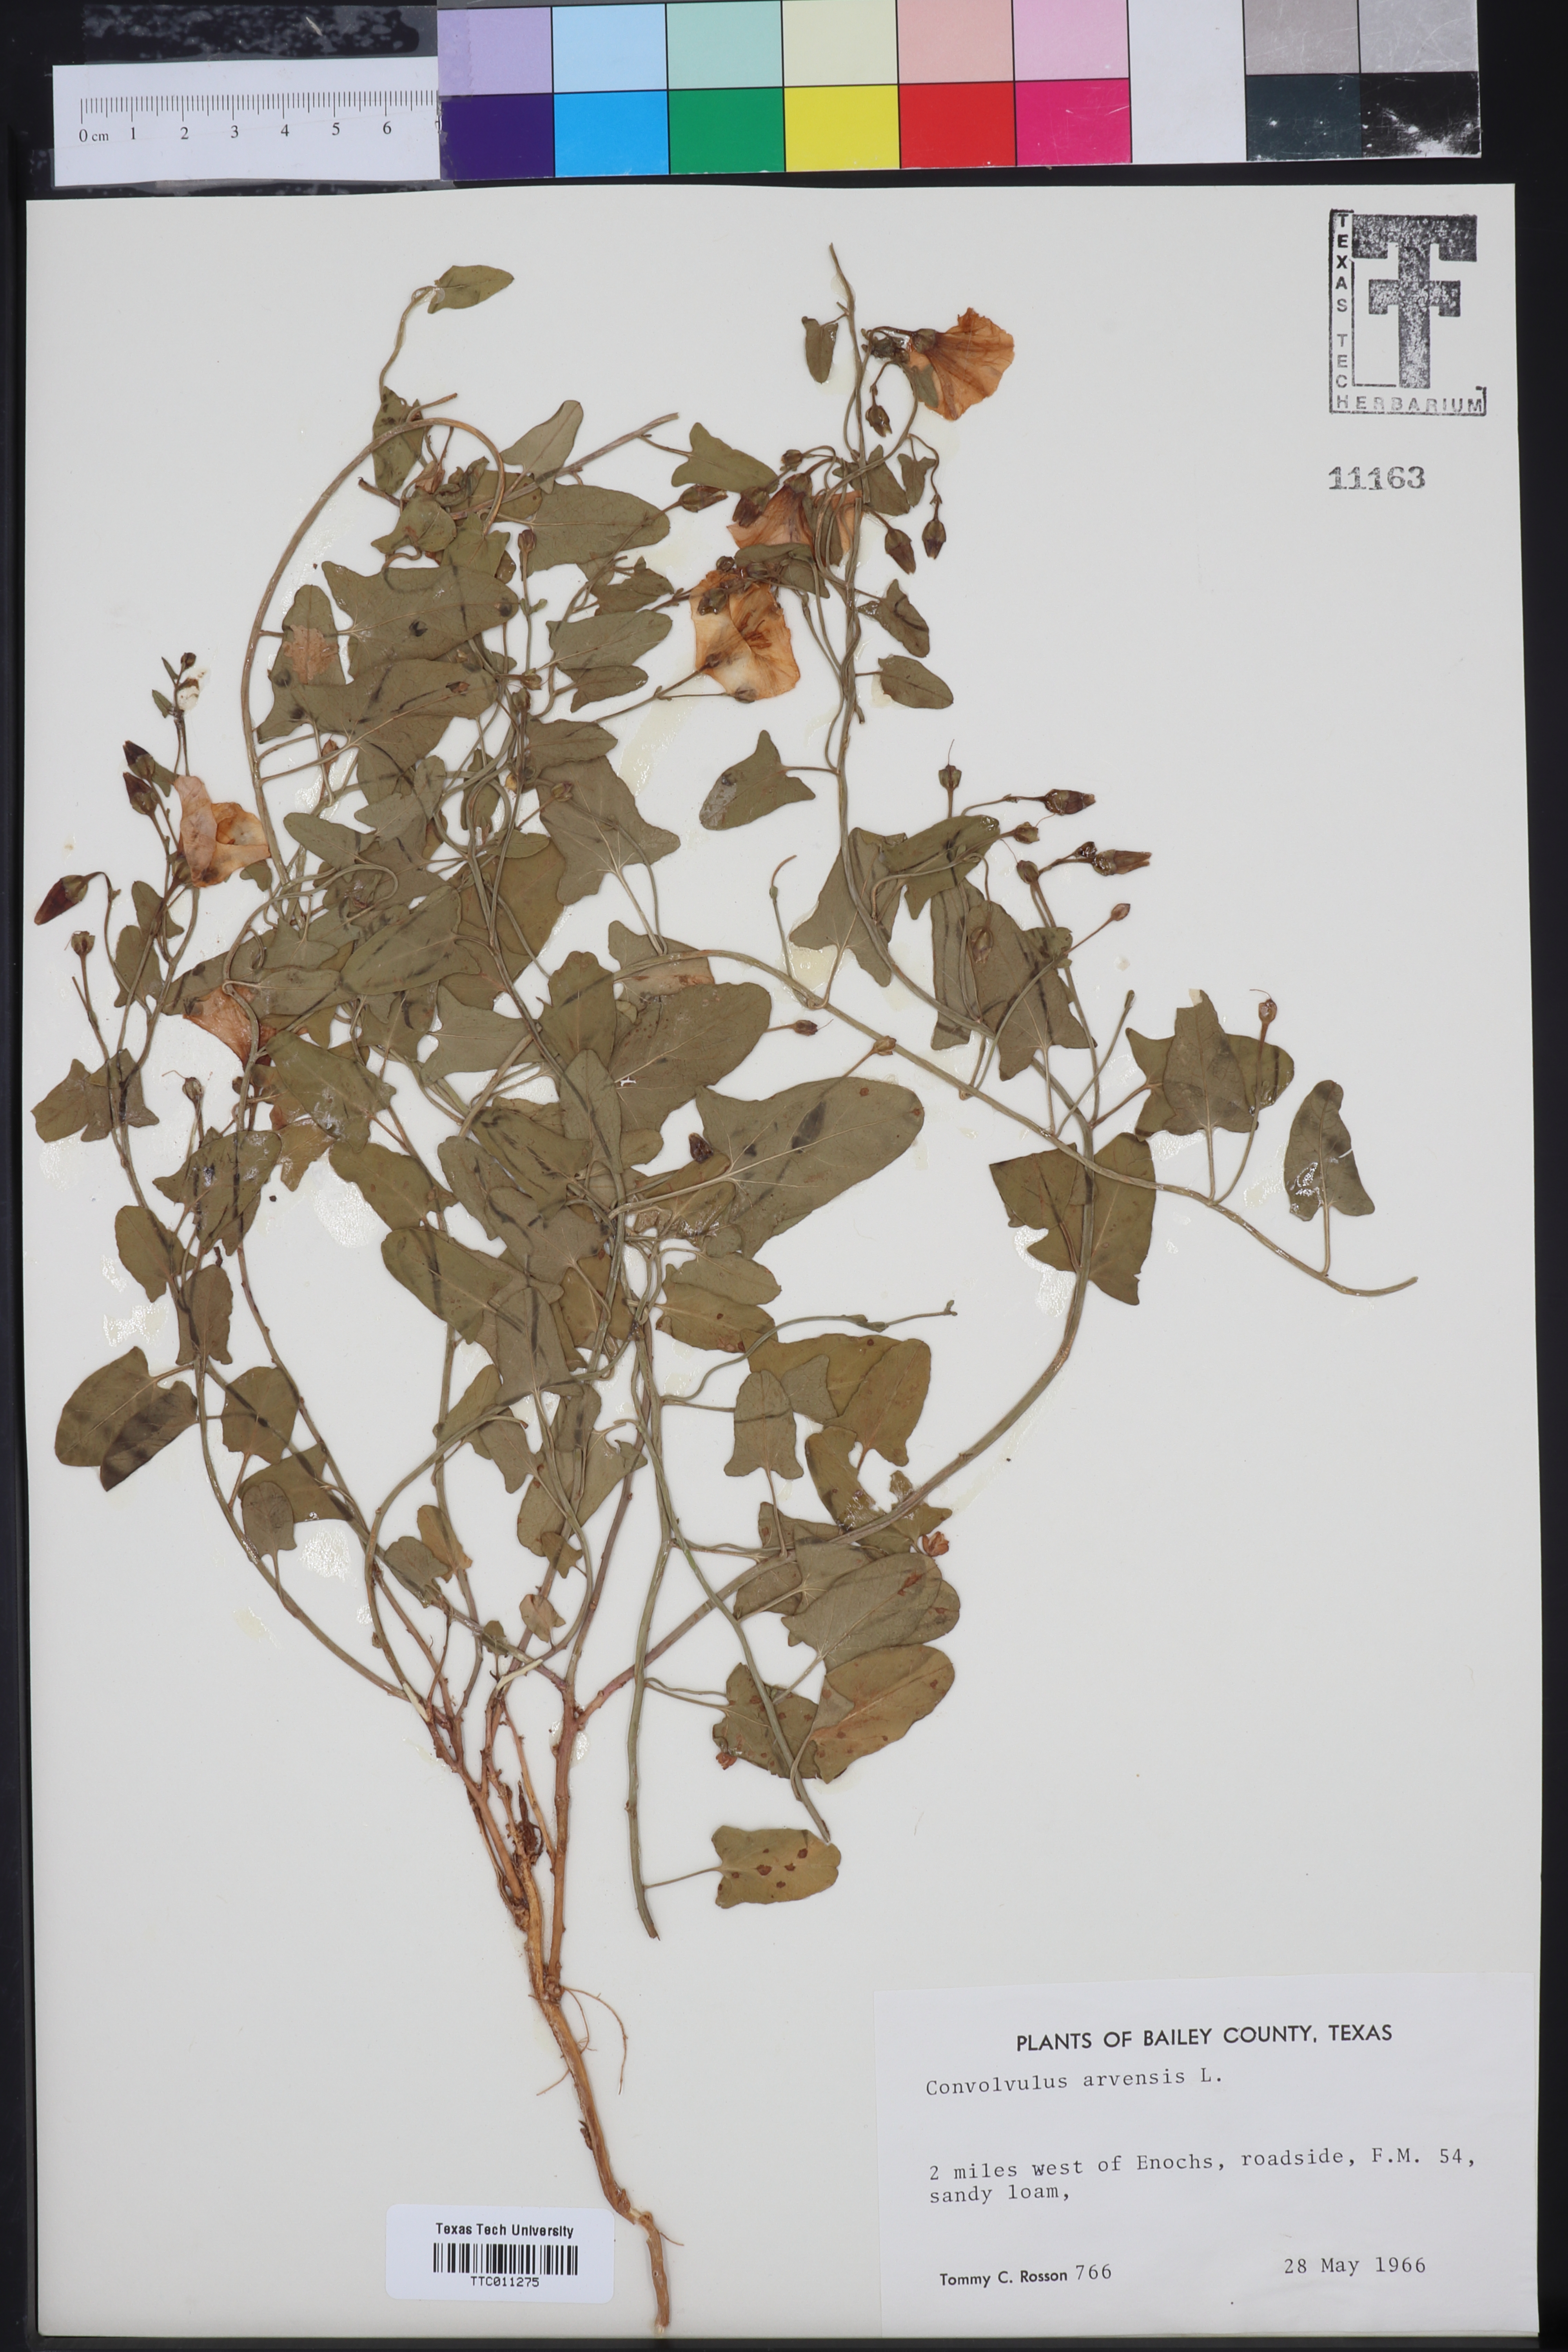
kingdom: Plantae
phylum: Tracheophyta
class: Magnoliopsida
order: Solanales
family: Convolvulaceae
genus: Convolvulus
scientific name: Convolvulus arvensis
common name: Field bindweed
